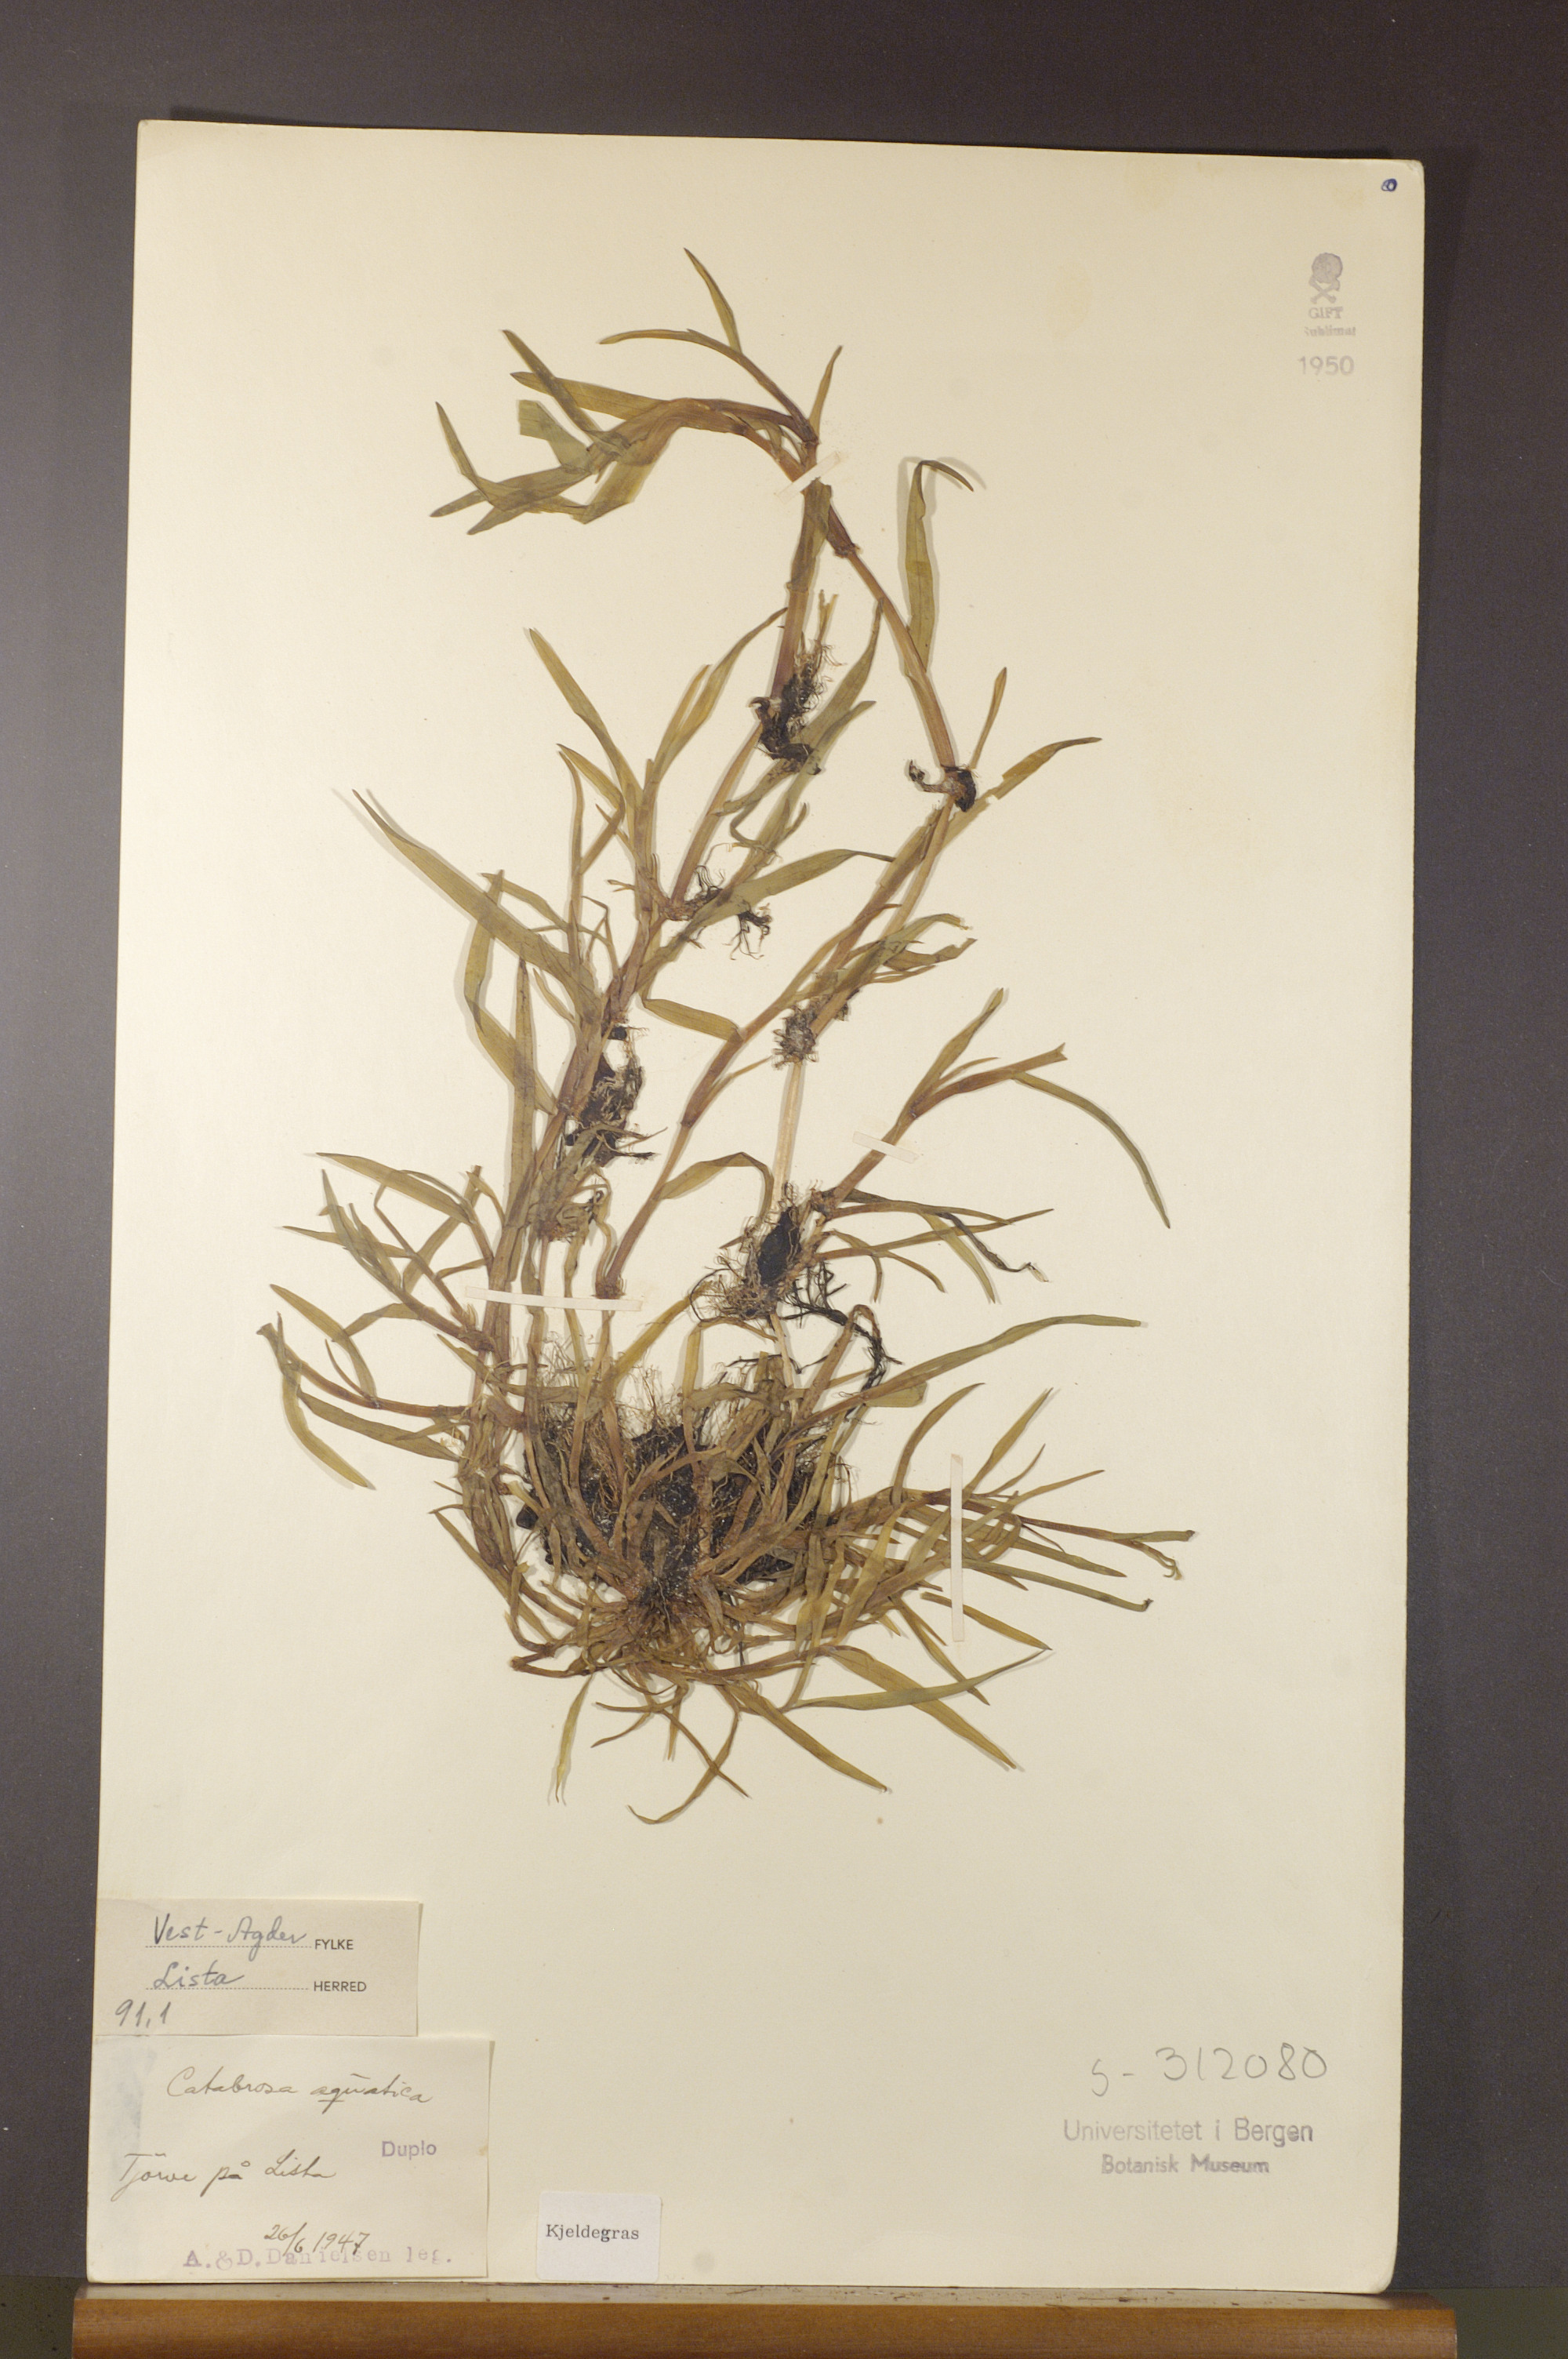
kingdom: Plantae
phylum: Tracheophyta
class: Liliopsida
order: Poales
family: Poaceae
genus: Catabrosa
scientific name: Catabrosa aquatica
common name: Whorl-grass
